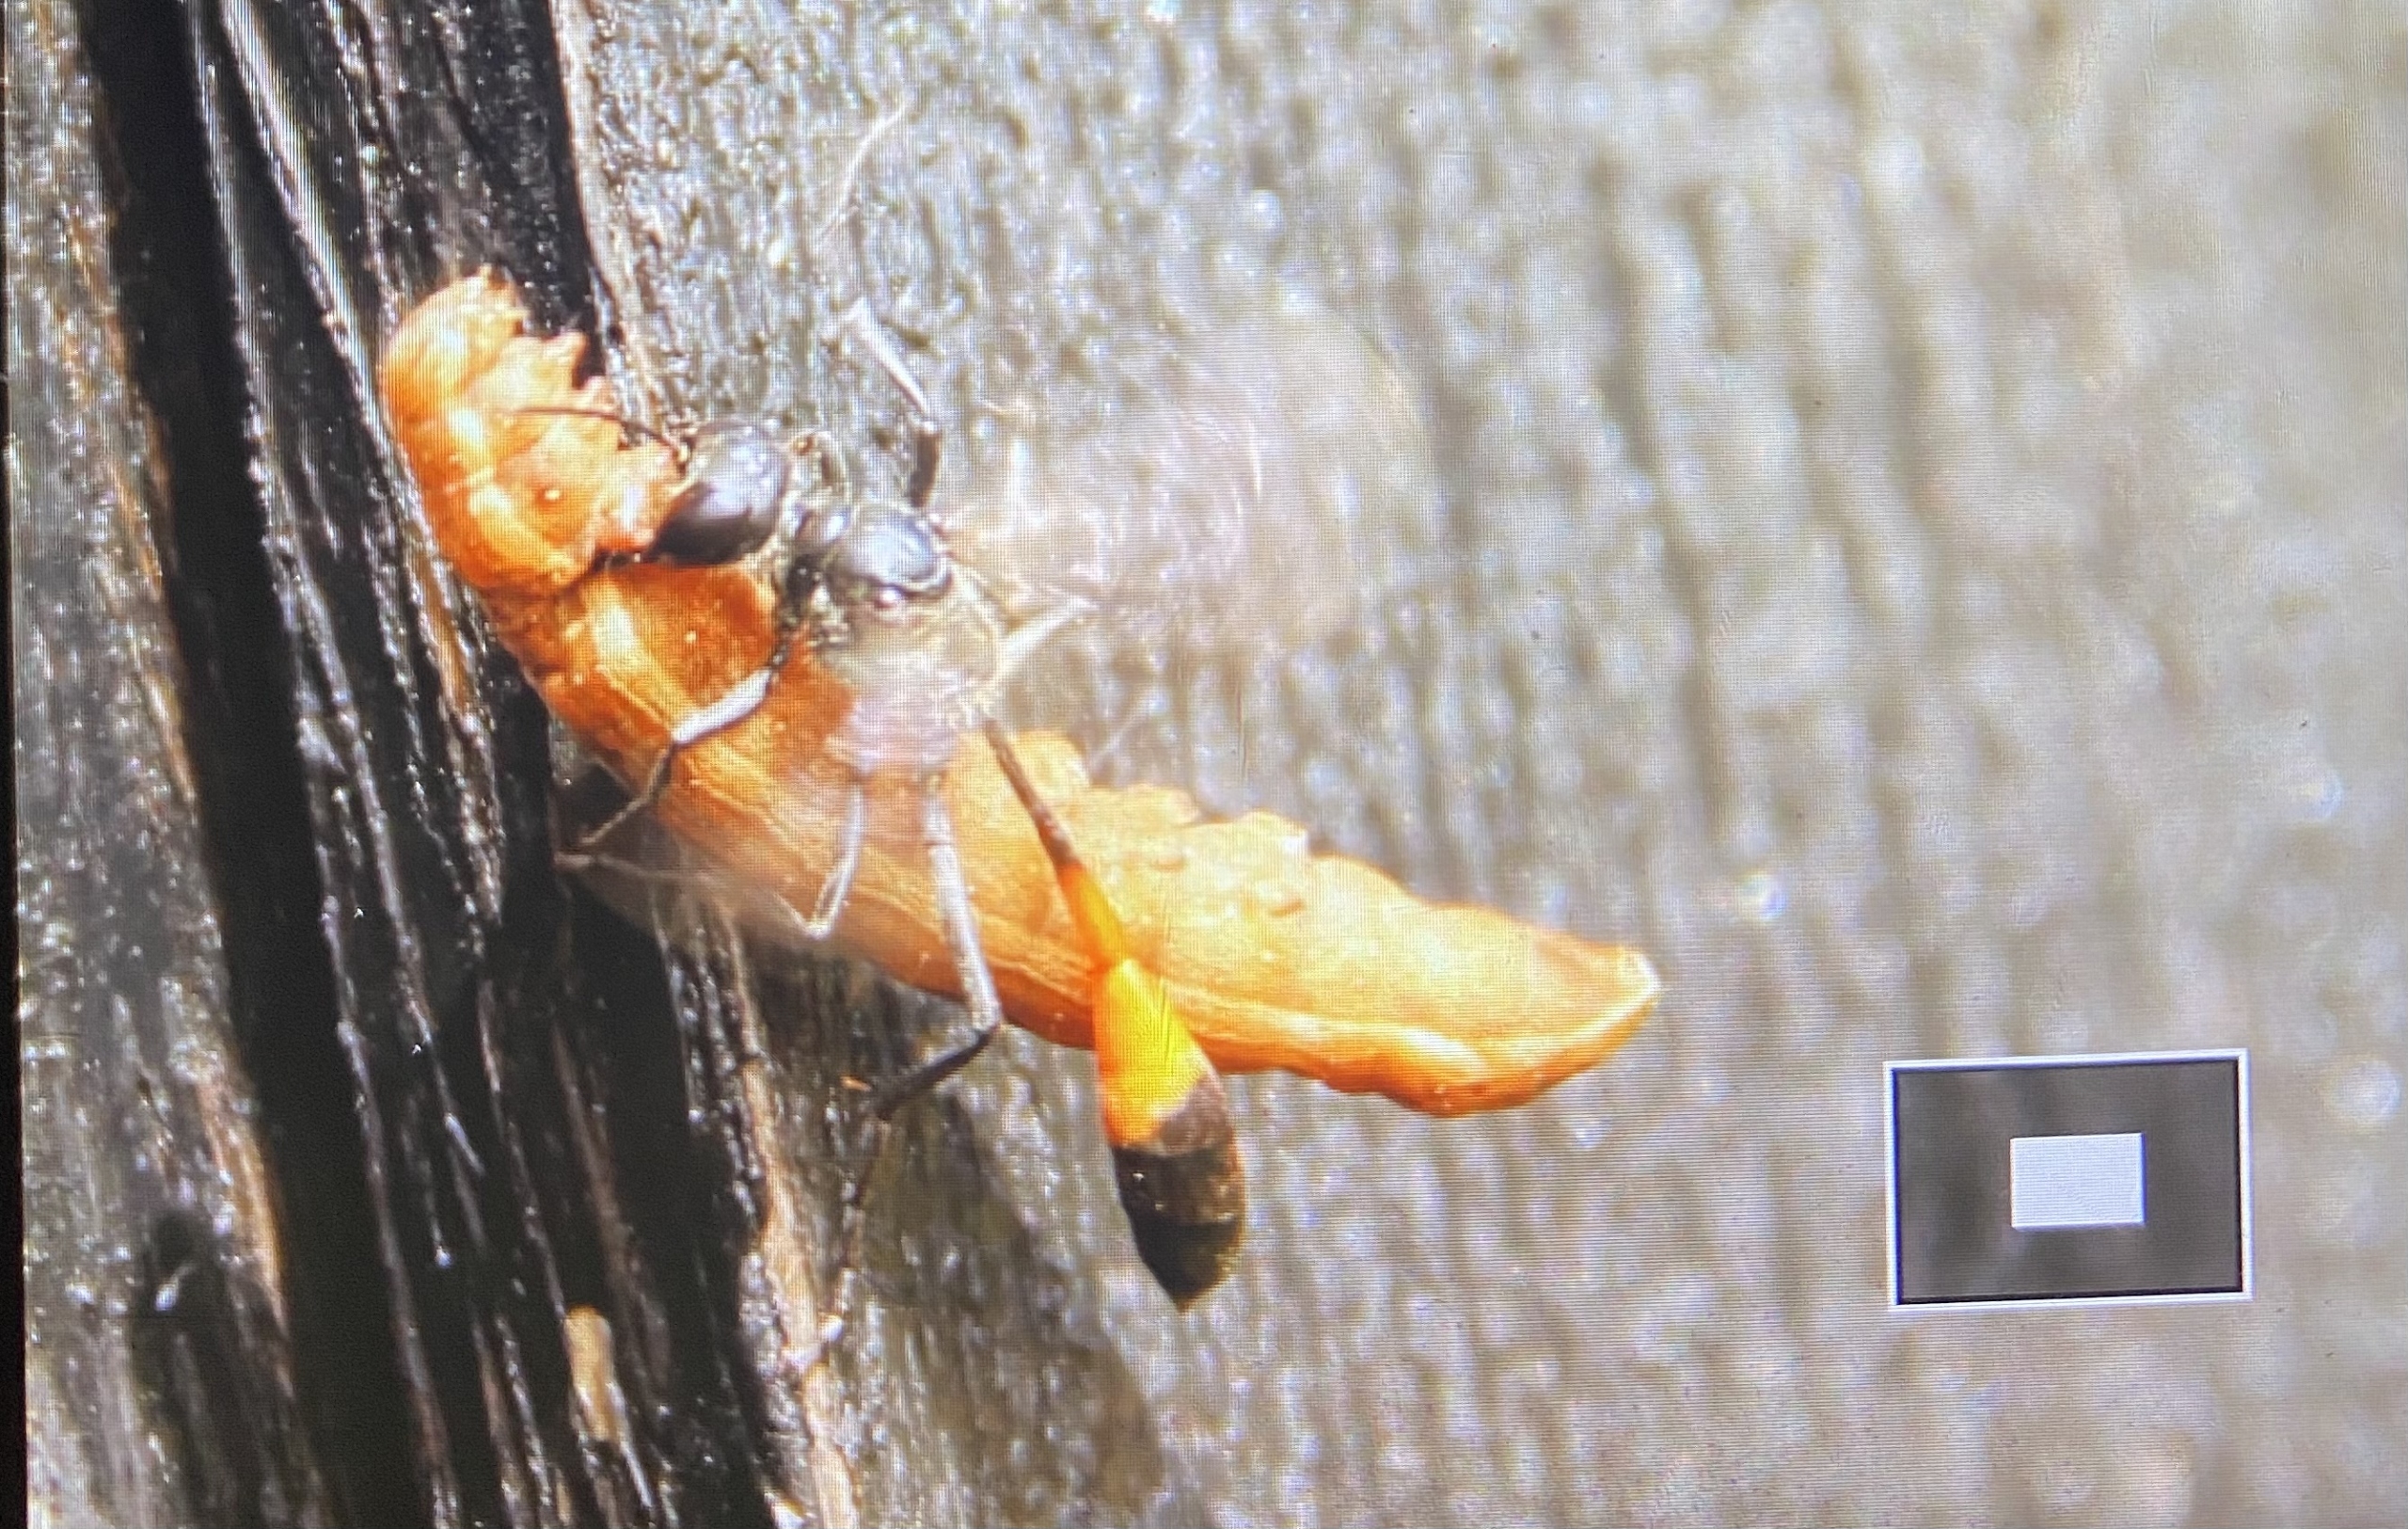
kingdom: Animalia
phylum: Arthropoda
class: Insecta
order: Hymenoptera
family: Sphecidae
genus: Ammophila
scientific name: Ammophila
